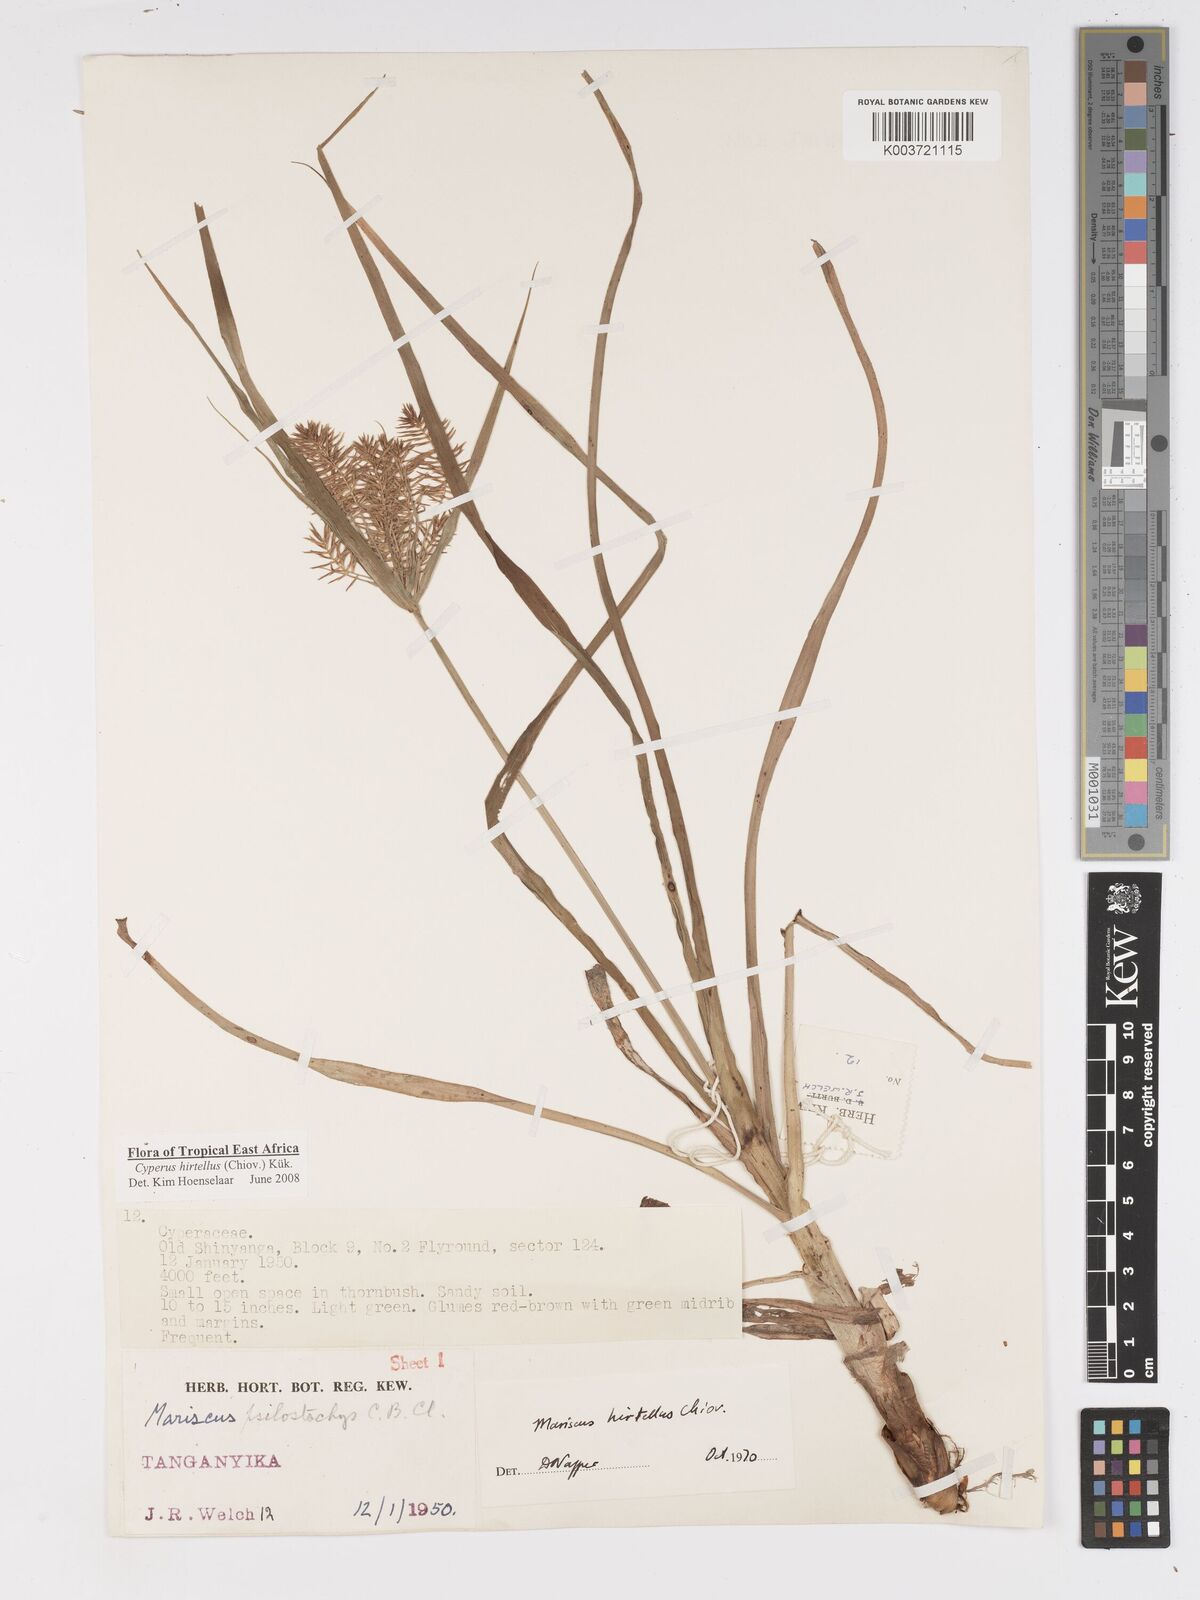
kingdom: Plantae
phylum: Tracheophyta
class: Liliopsida
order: Poales
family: Cyperaceae
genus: Cyperus
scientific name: Cyperus hirtellus
